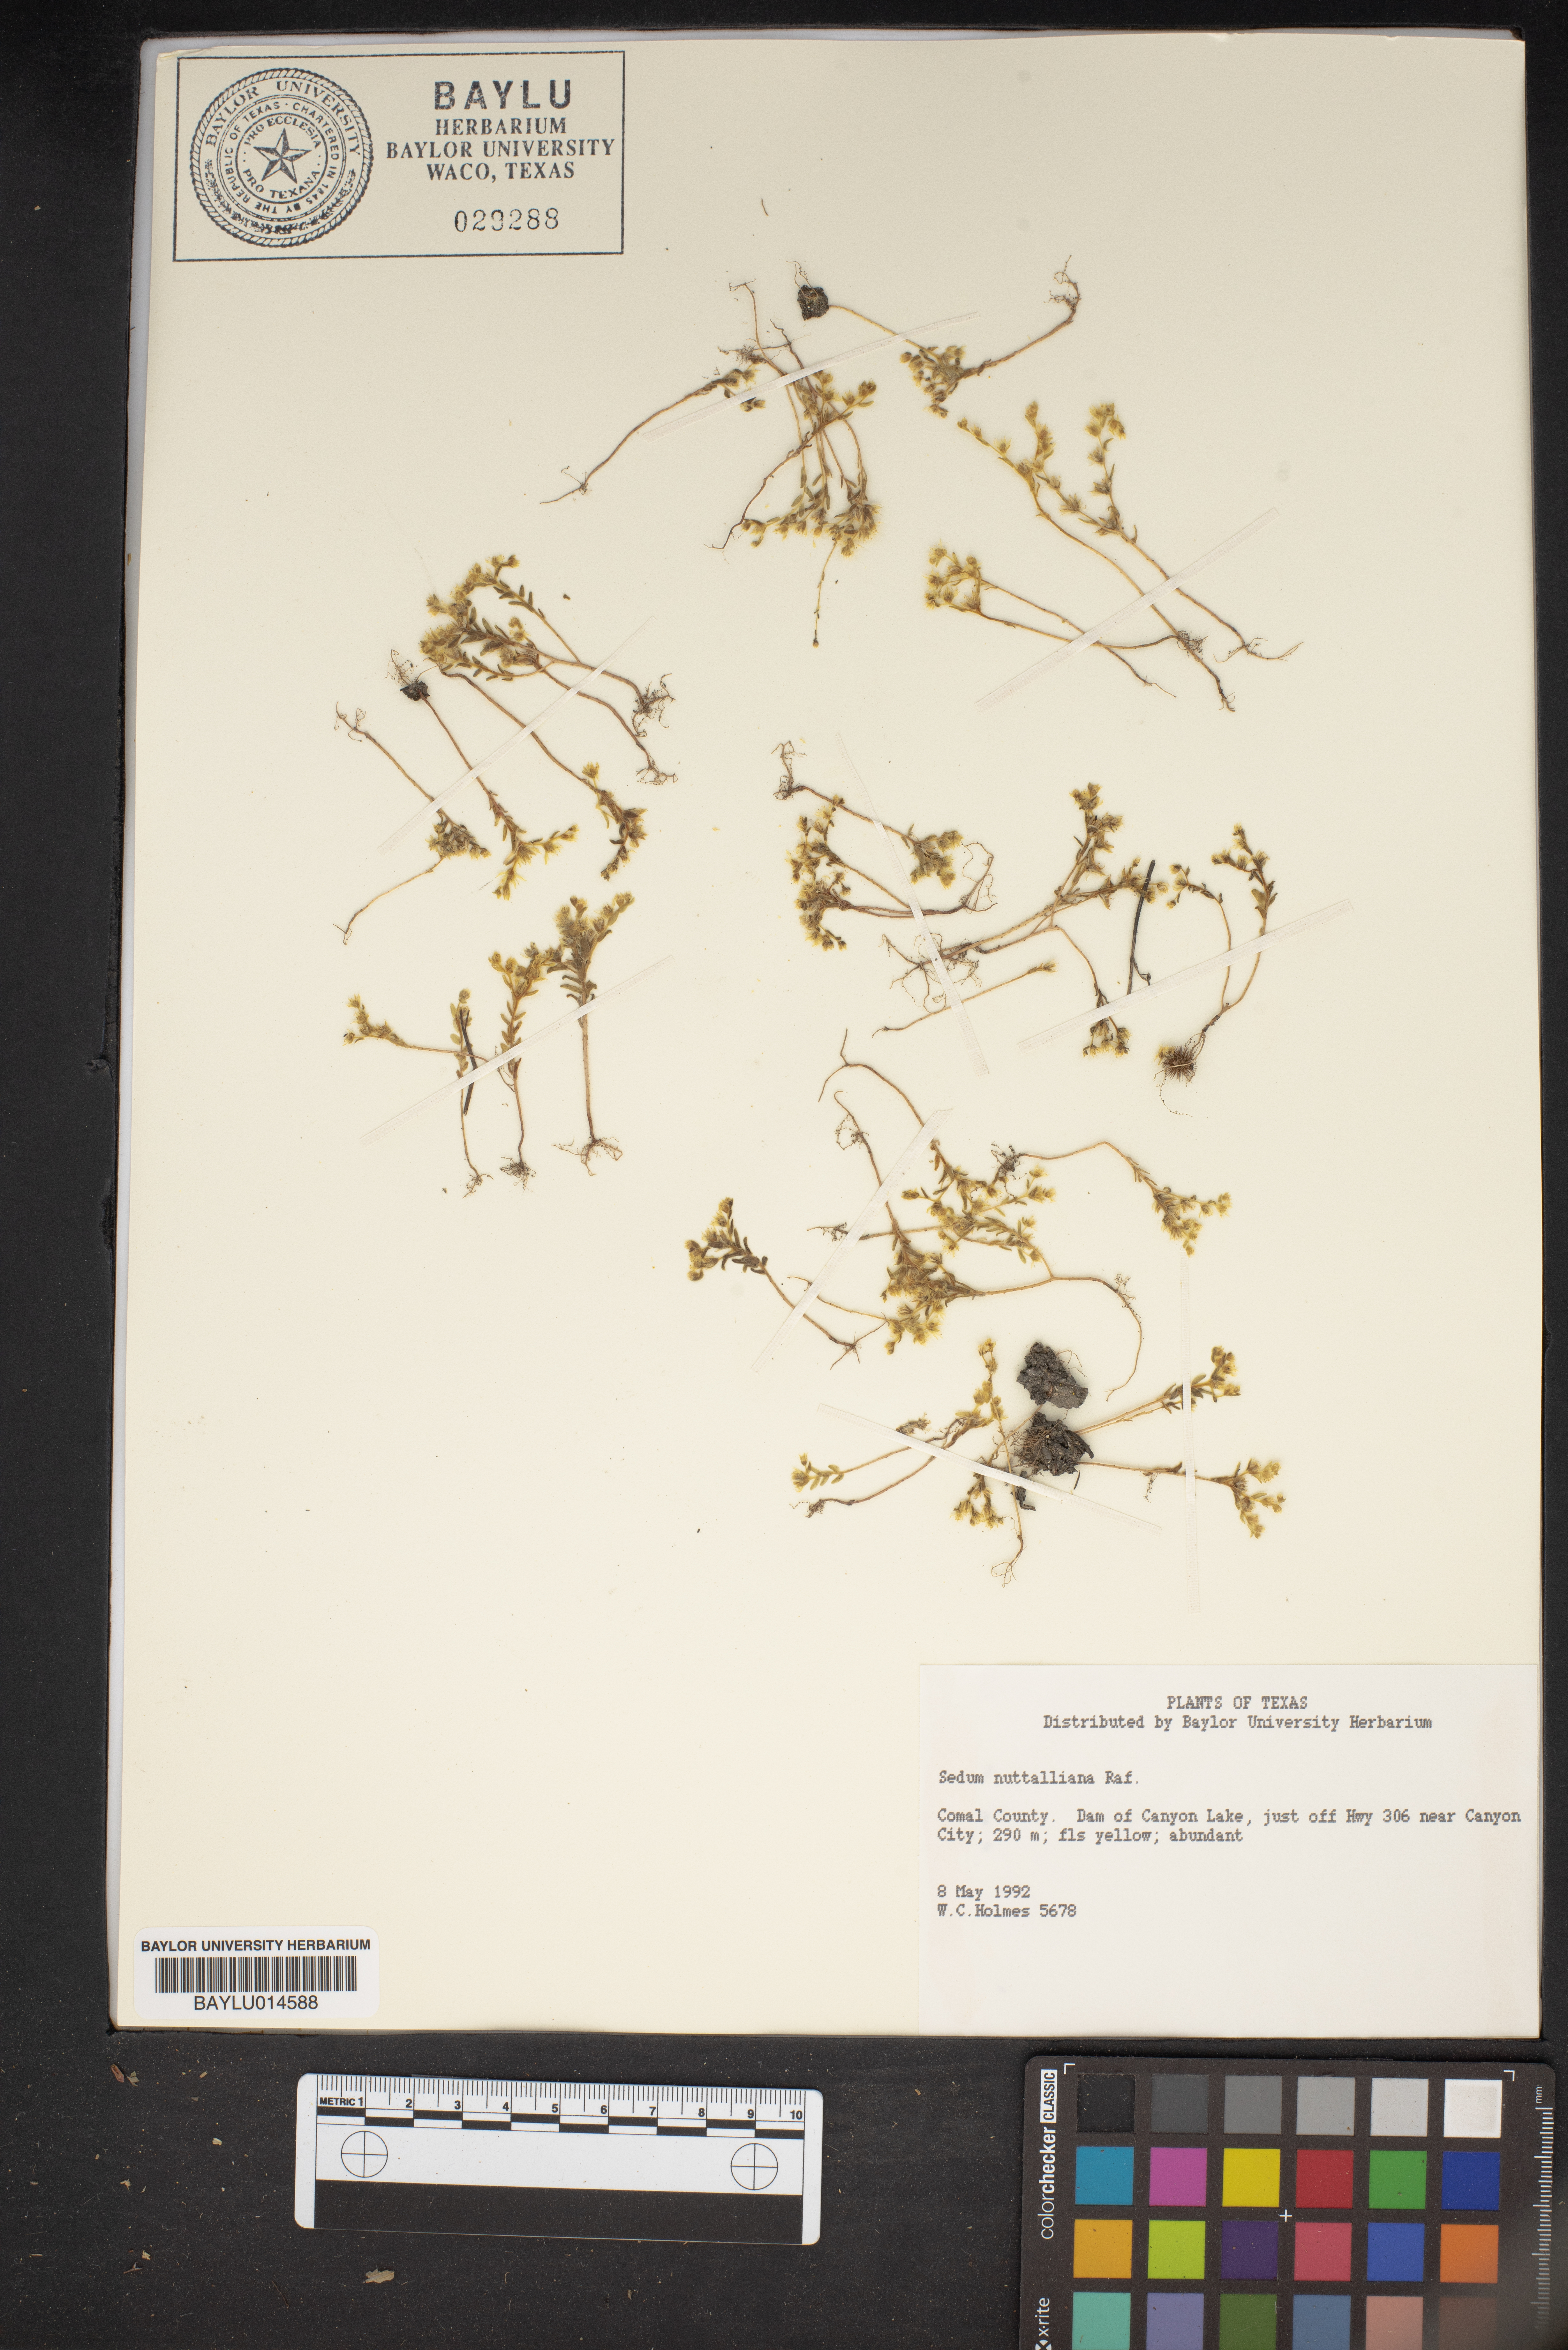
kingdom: Plantae
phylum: Tracheophyta
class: Magnoliopsida
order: Saxifragales
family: Crassulaceae
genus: Sedum
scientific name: Sedum nuttallii
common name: Yellow stonecrop
